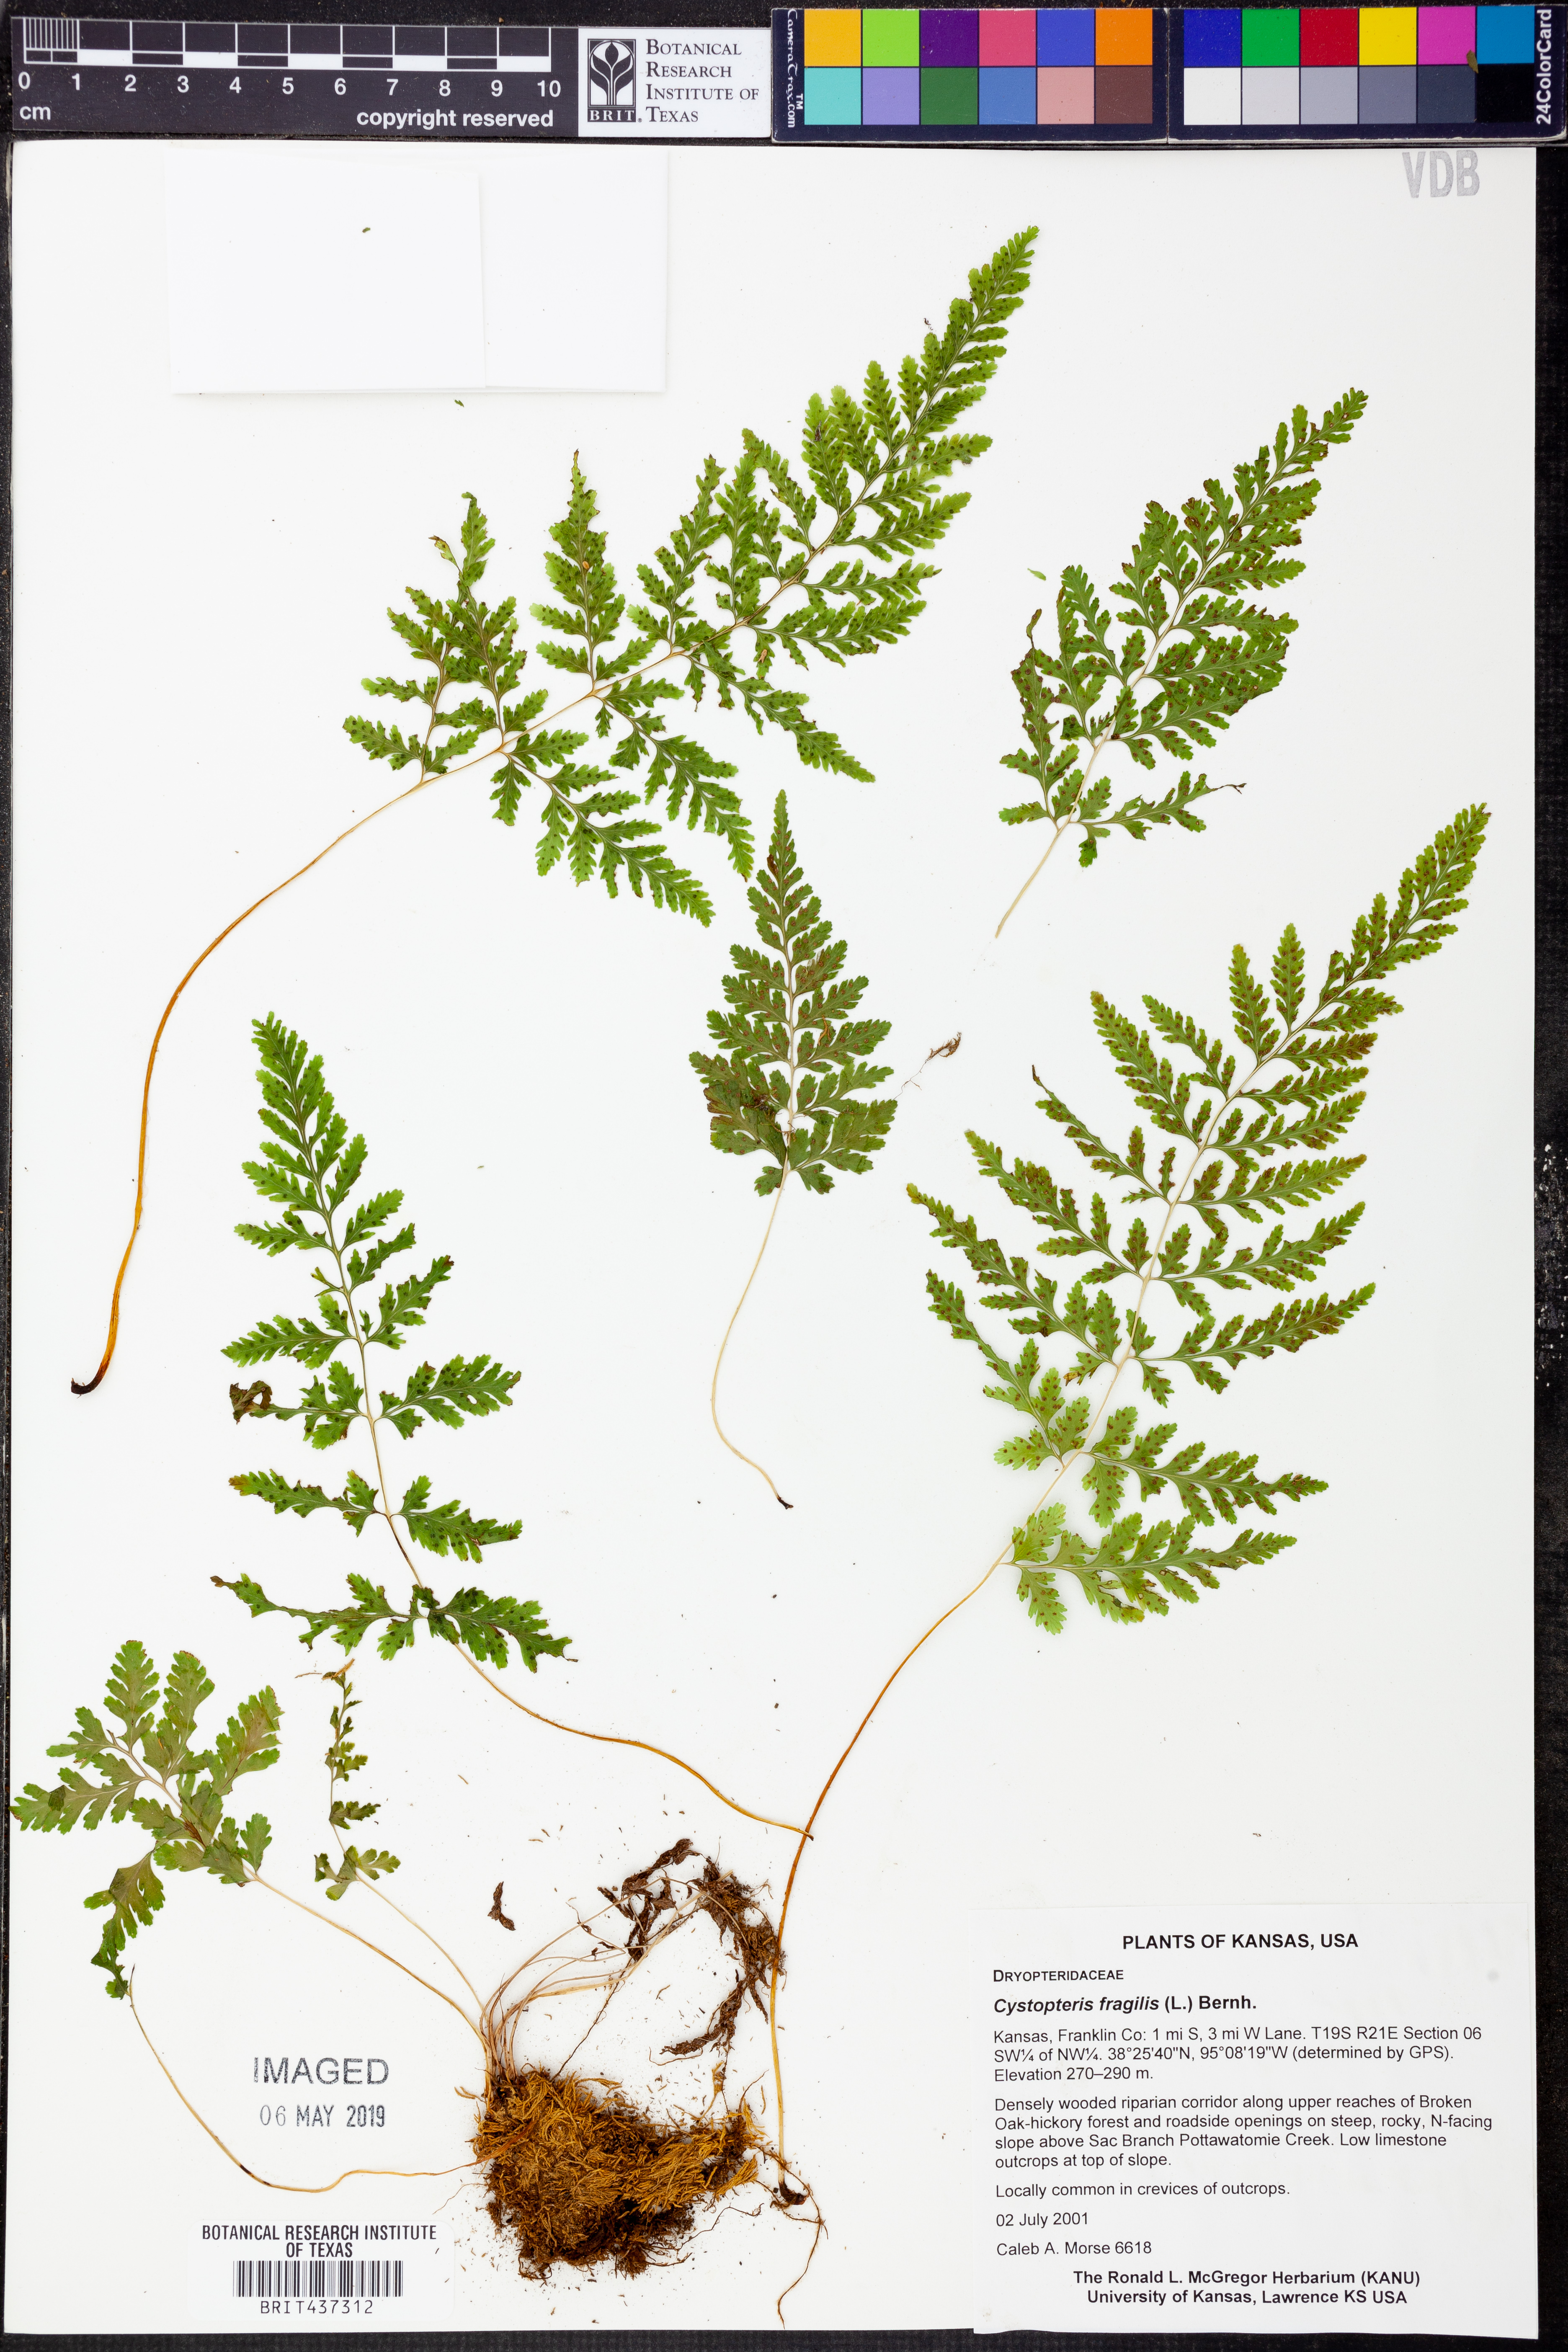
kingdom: Plantae
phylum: Tracheophyta
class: Polypodiopsida
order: Polypodiales
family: Cystopteridaceae
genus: Cystopteris
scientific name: Cystopteris fragilis
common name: Brittle bladder fern
